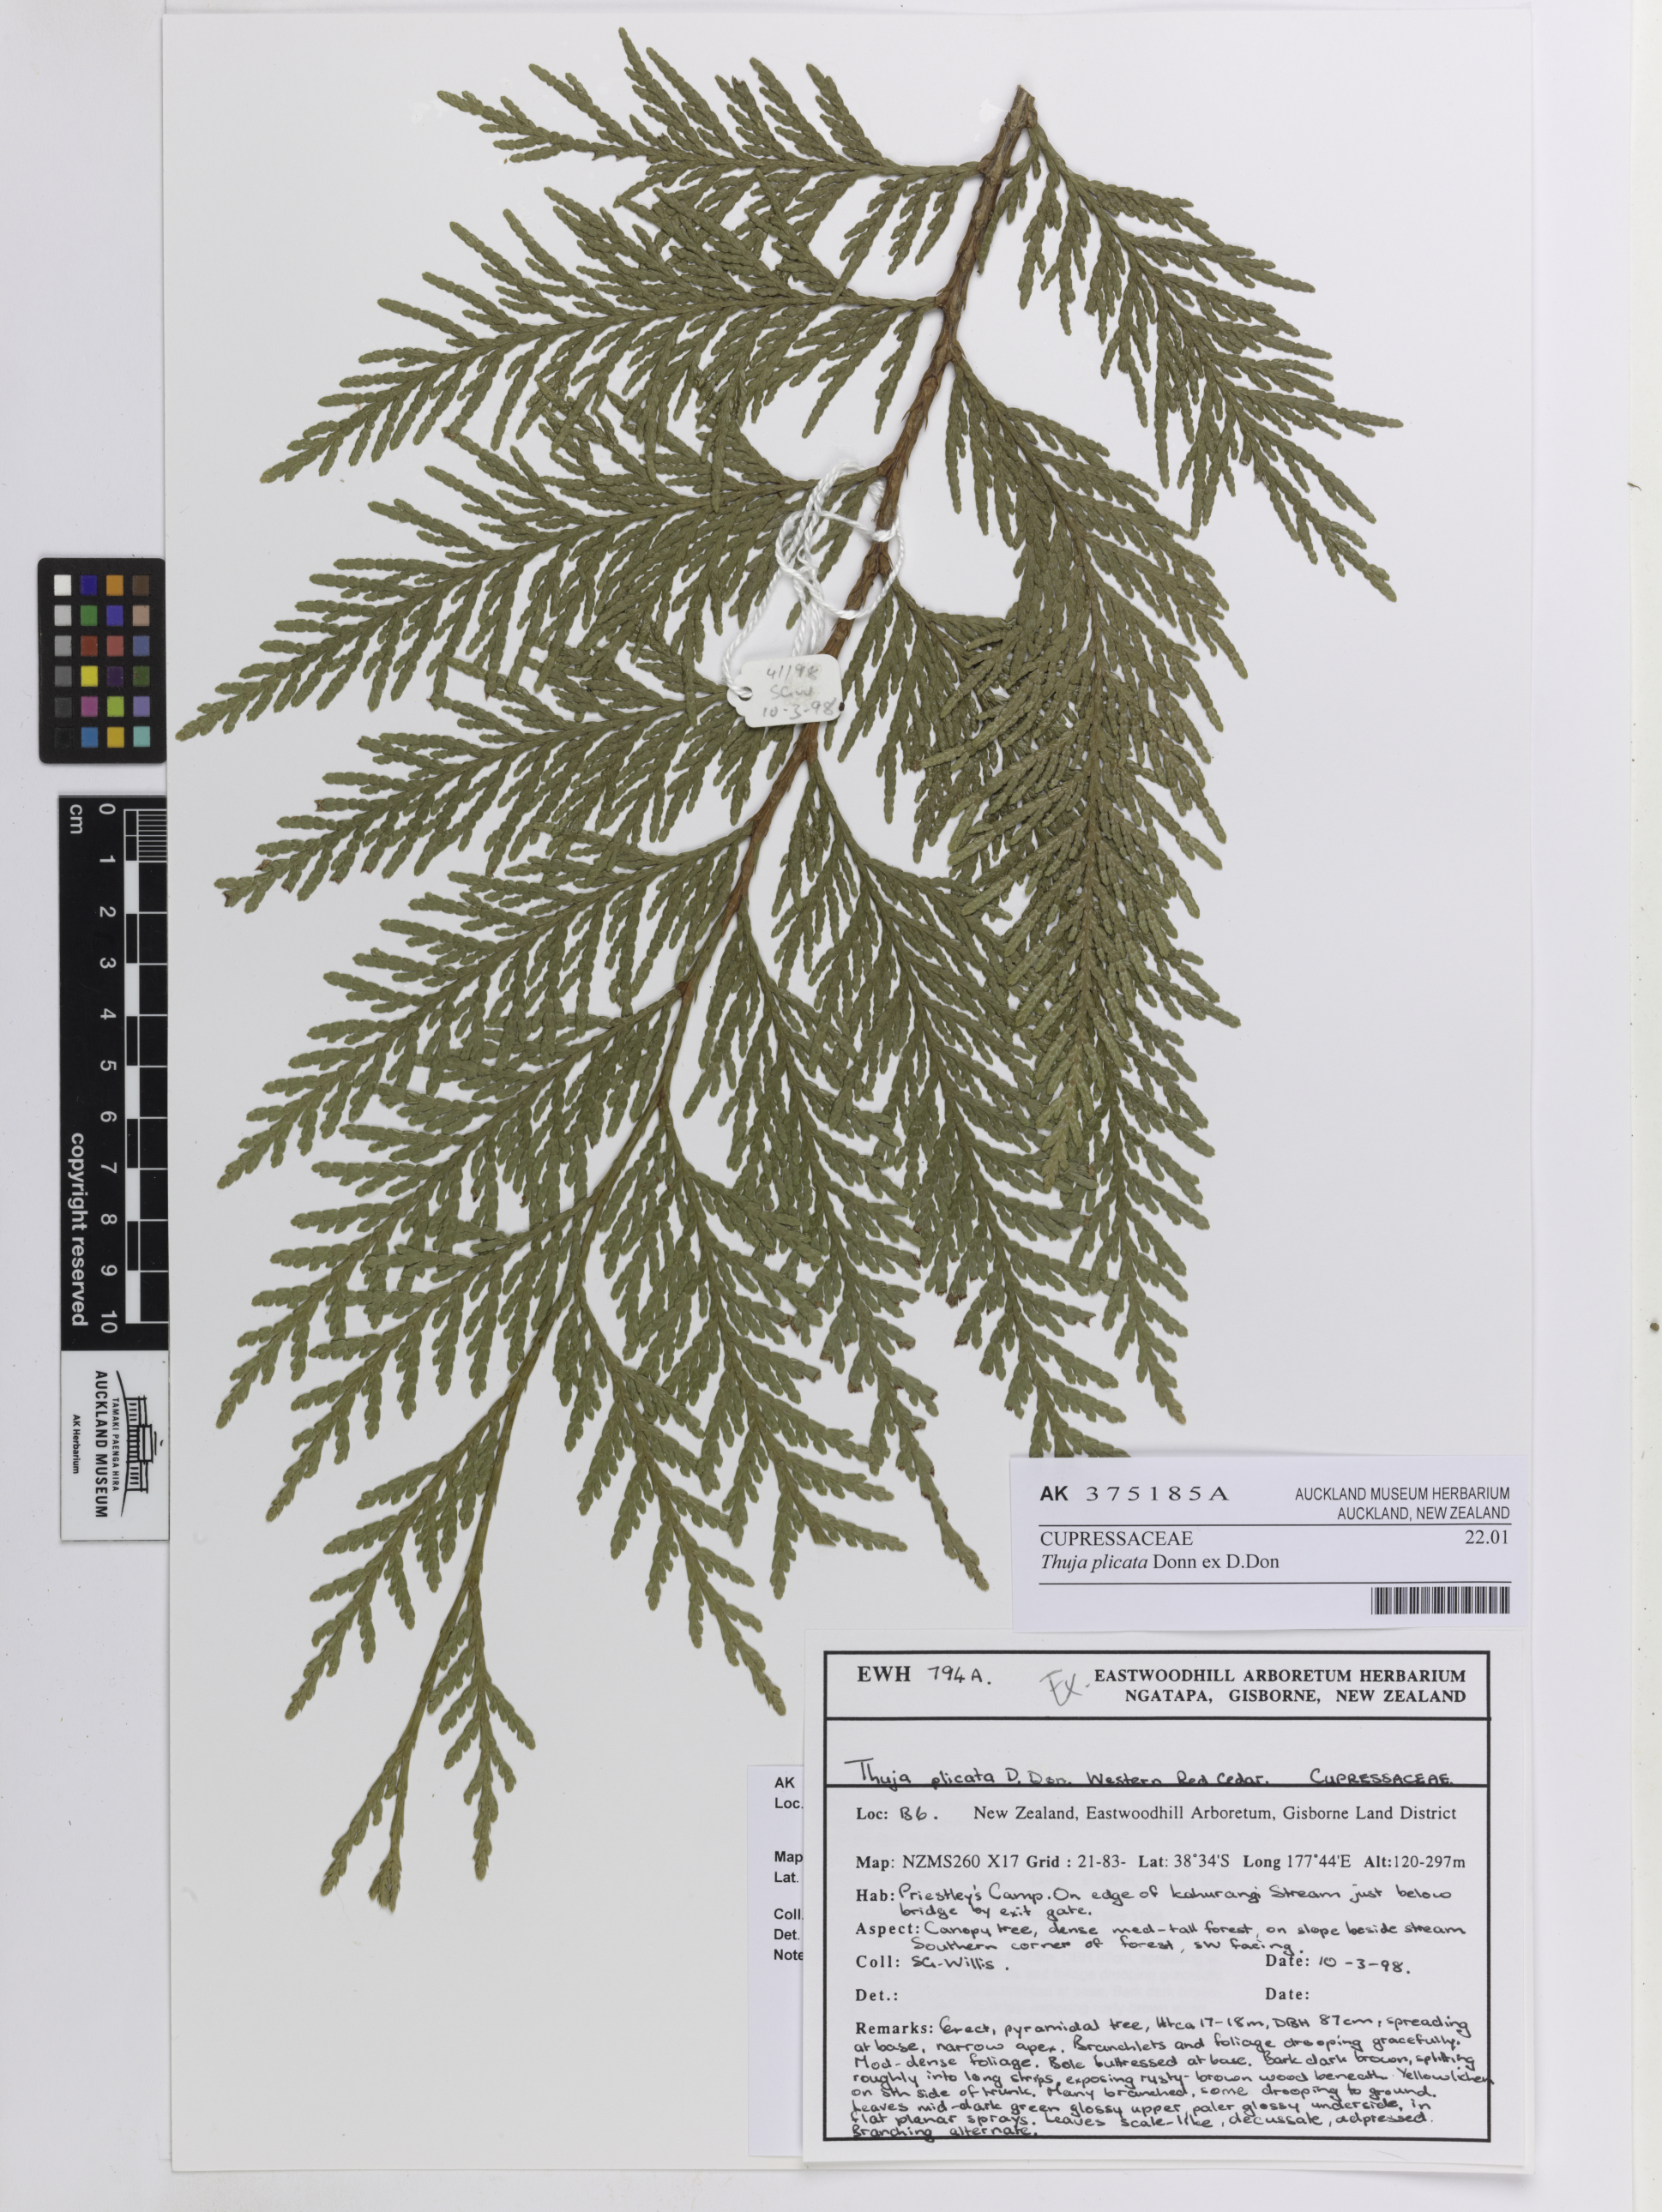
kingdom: Plantae
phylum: Tracheophyta
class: Pinopsida
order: Pinales
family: Cupressaceae
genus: Thuja
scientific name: Thuja plicata
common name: Western red-cedar
